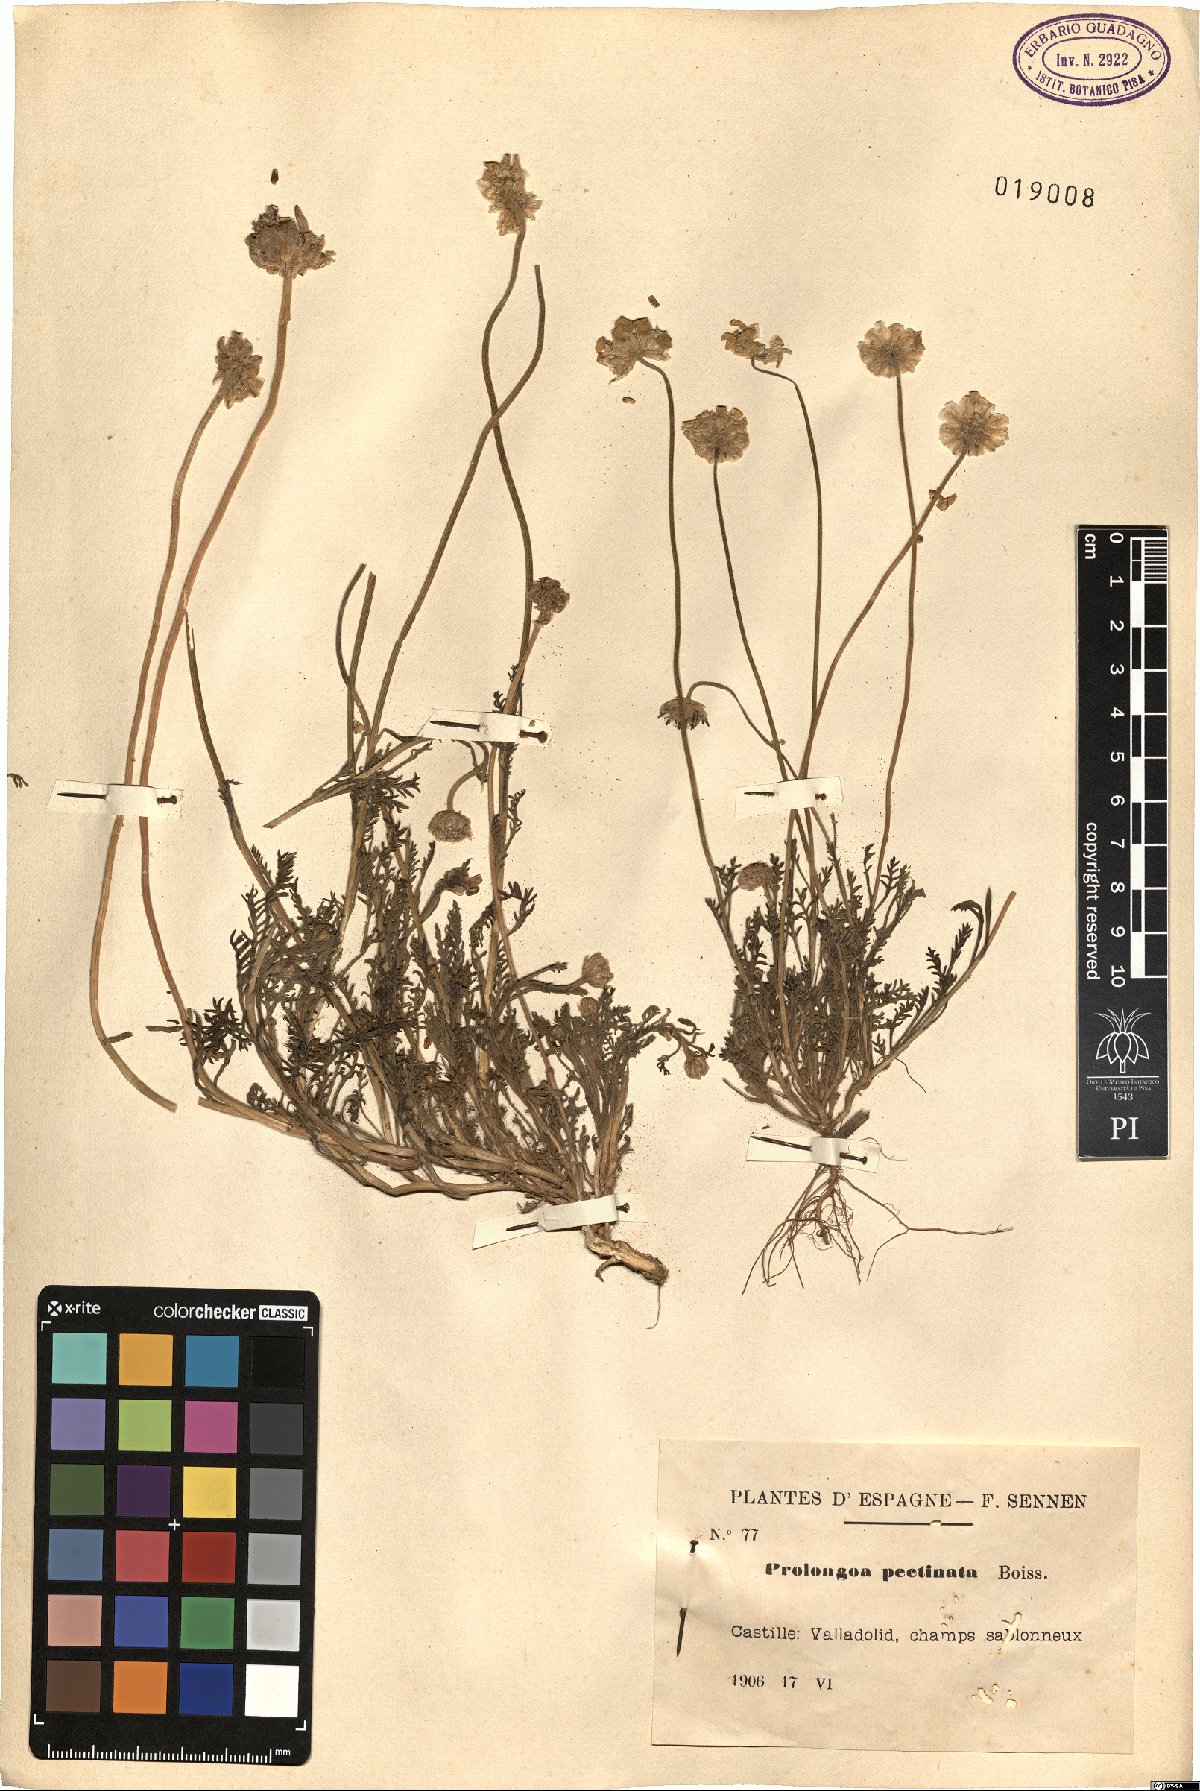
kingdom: Plantae
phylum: Tracheophyta
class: Magnoliopsida
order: Asterales
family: Asteraceae
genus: Leucanthemopsis
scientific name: Leucanthemopsis pectinata
